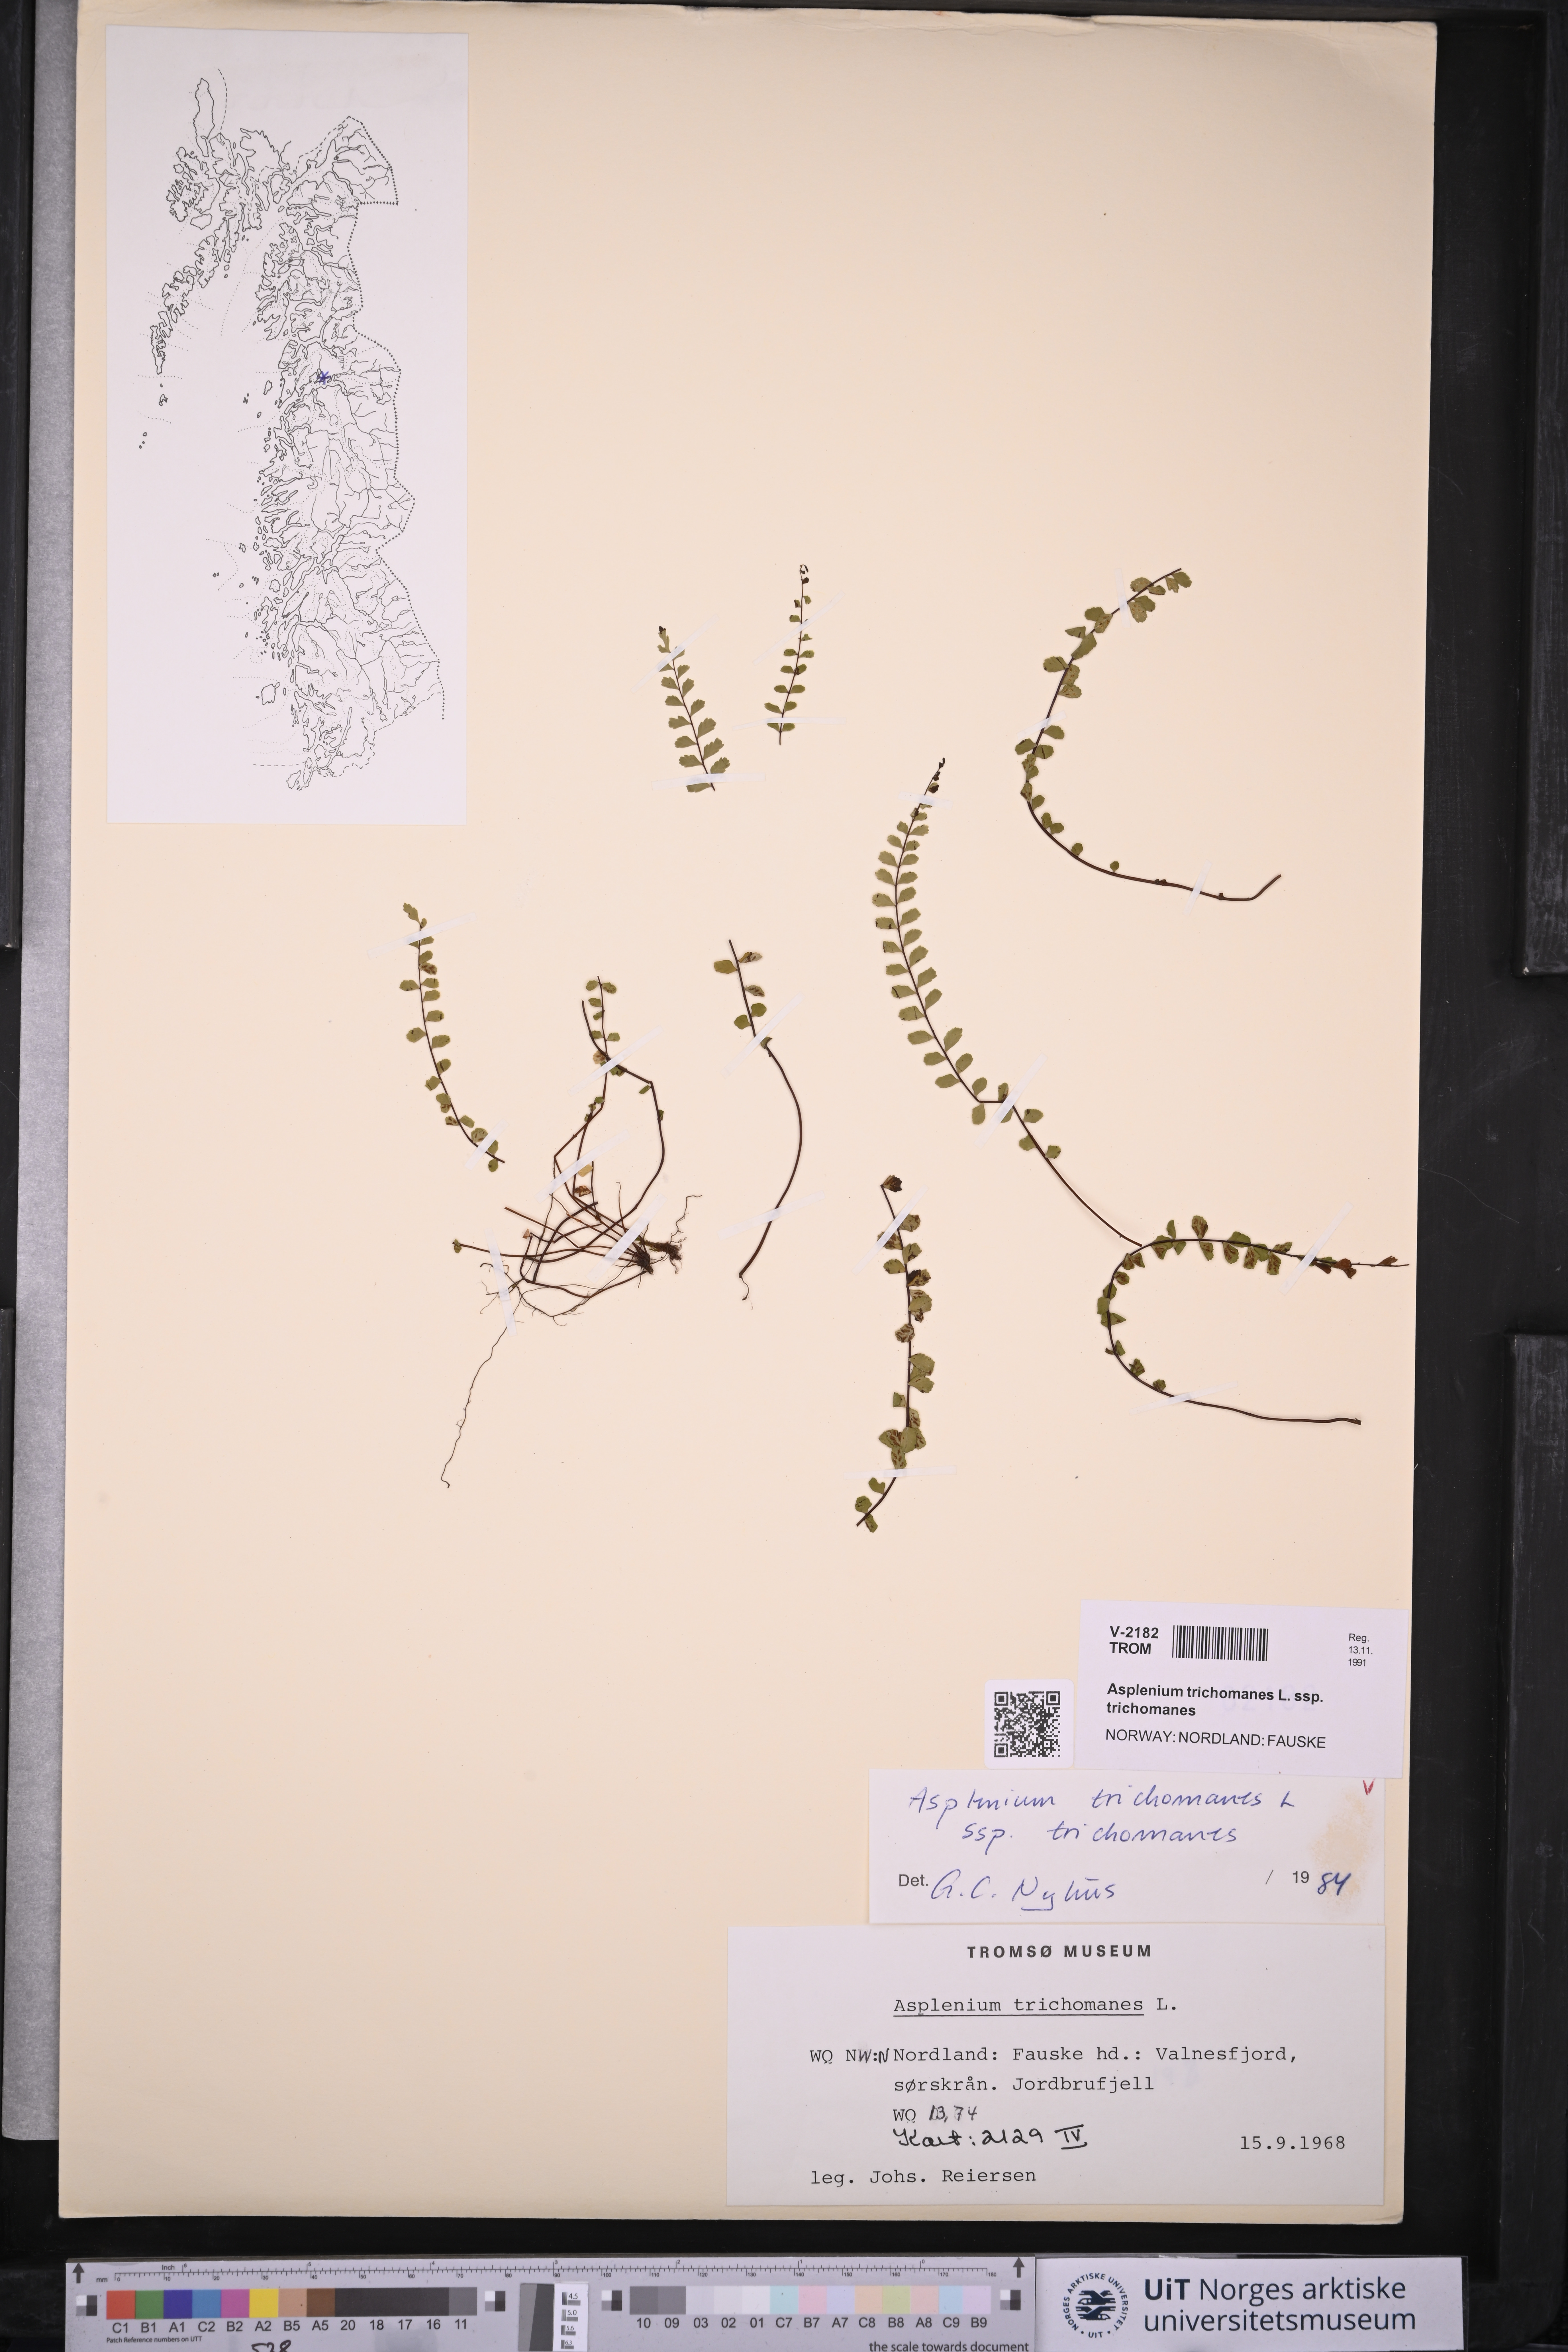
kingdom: Plantae
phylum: Tracheophyta
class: Polypodiopsida
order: Polypodiales
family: Aspleniaceae
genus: Asplenium
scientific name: Asplenium trichomanes
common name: Maidenhair spleenwort
